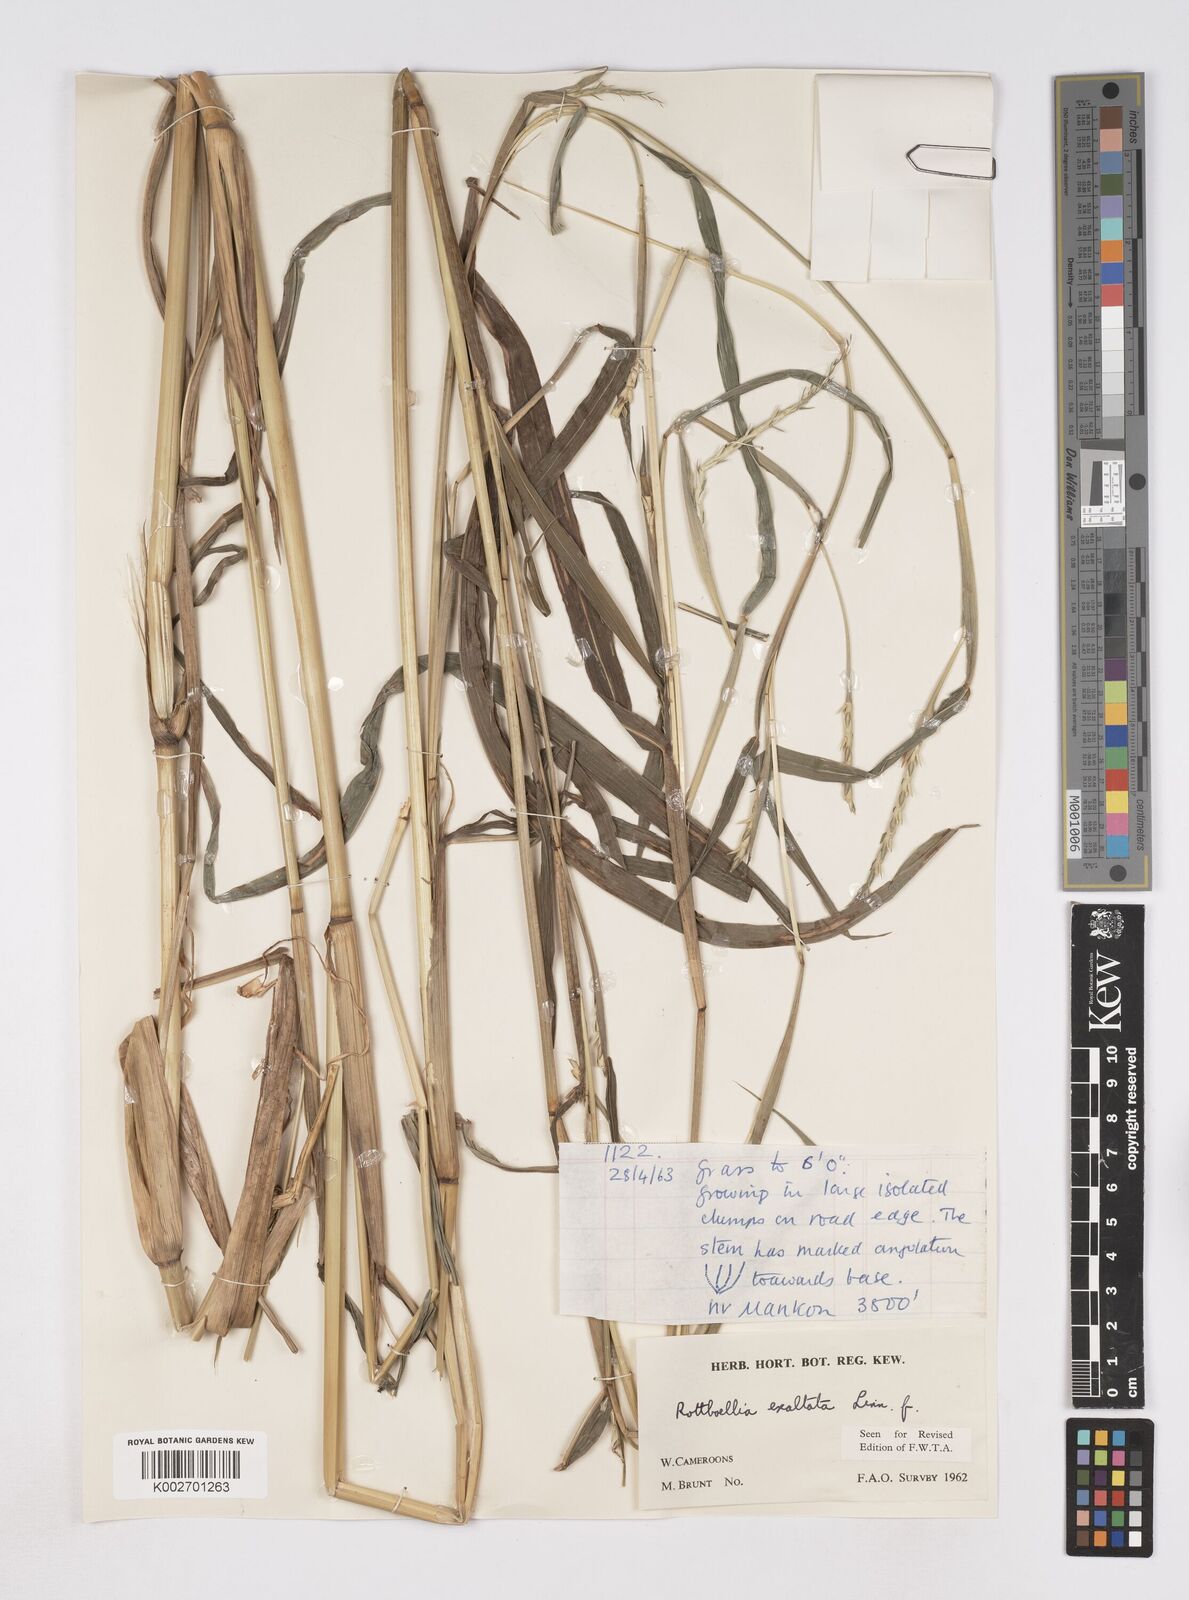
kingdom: Plantae
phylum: Tracheophyta
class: Liliopsida
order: Poales
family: Poaceae
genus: Rottboellia
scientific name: Rottboellia
